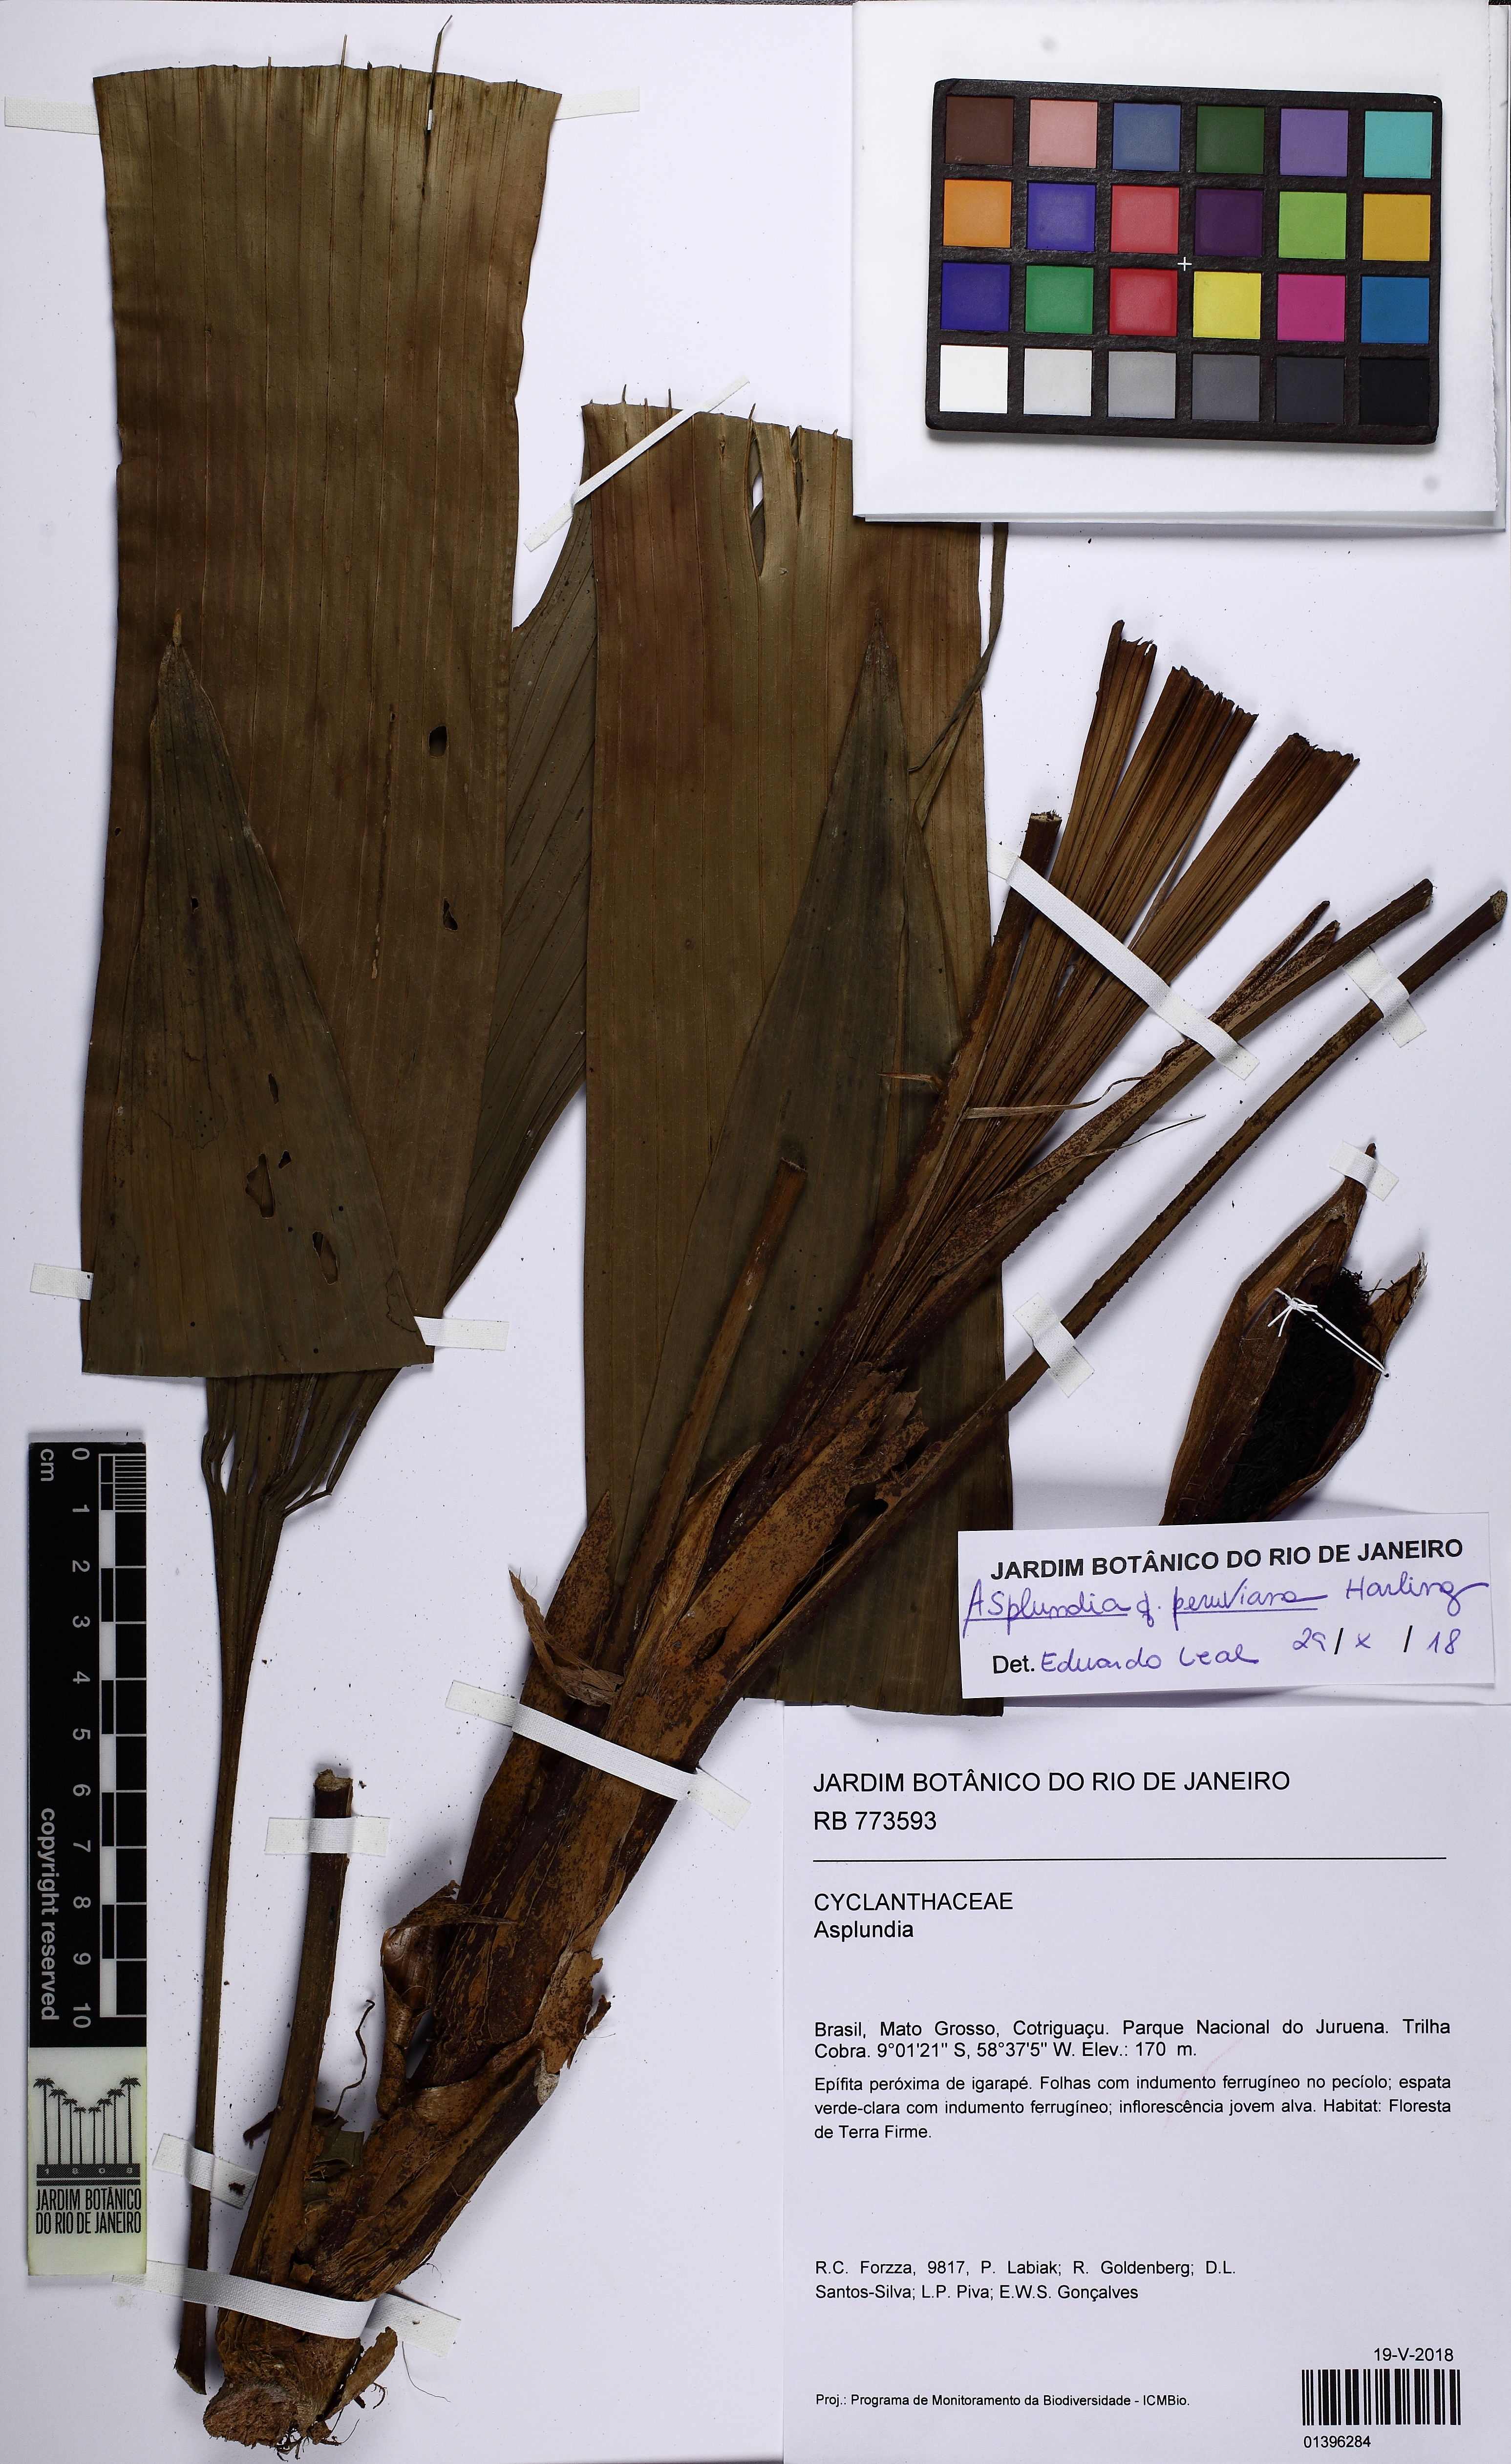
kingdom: Plantae
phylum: Tracheophyta
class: Liliopsida
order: Pandanales
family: Cyclanthaceae
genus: Asplundia
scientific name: Asplundia peruviana
